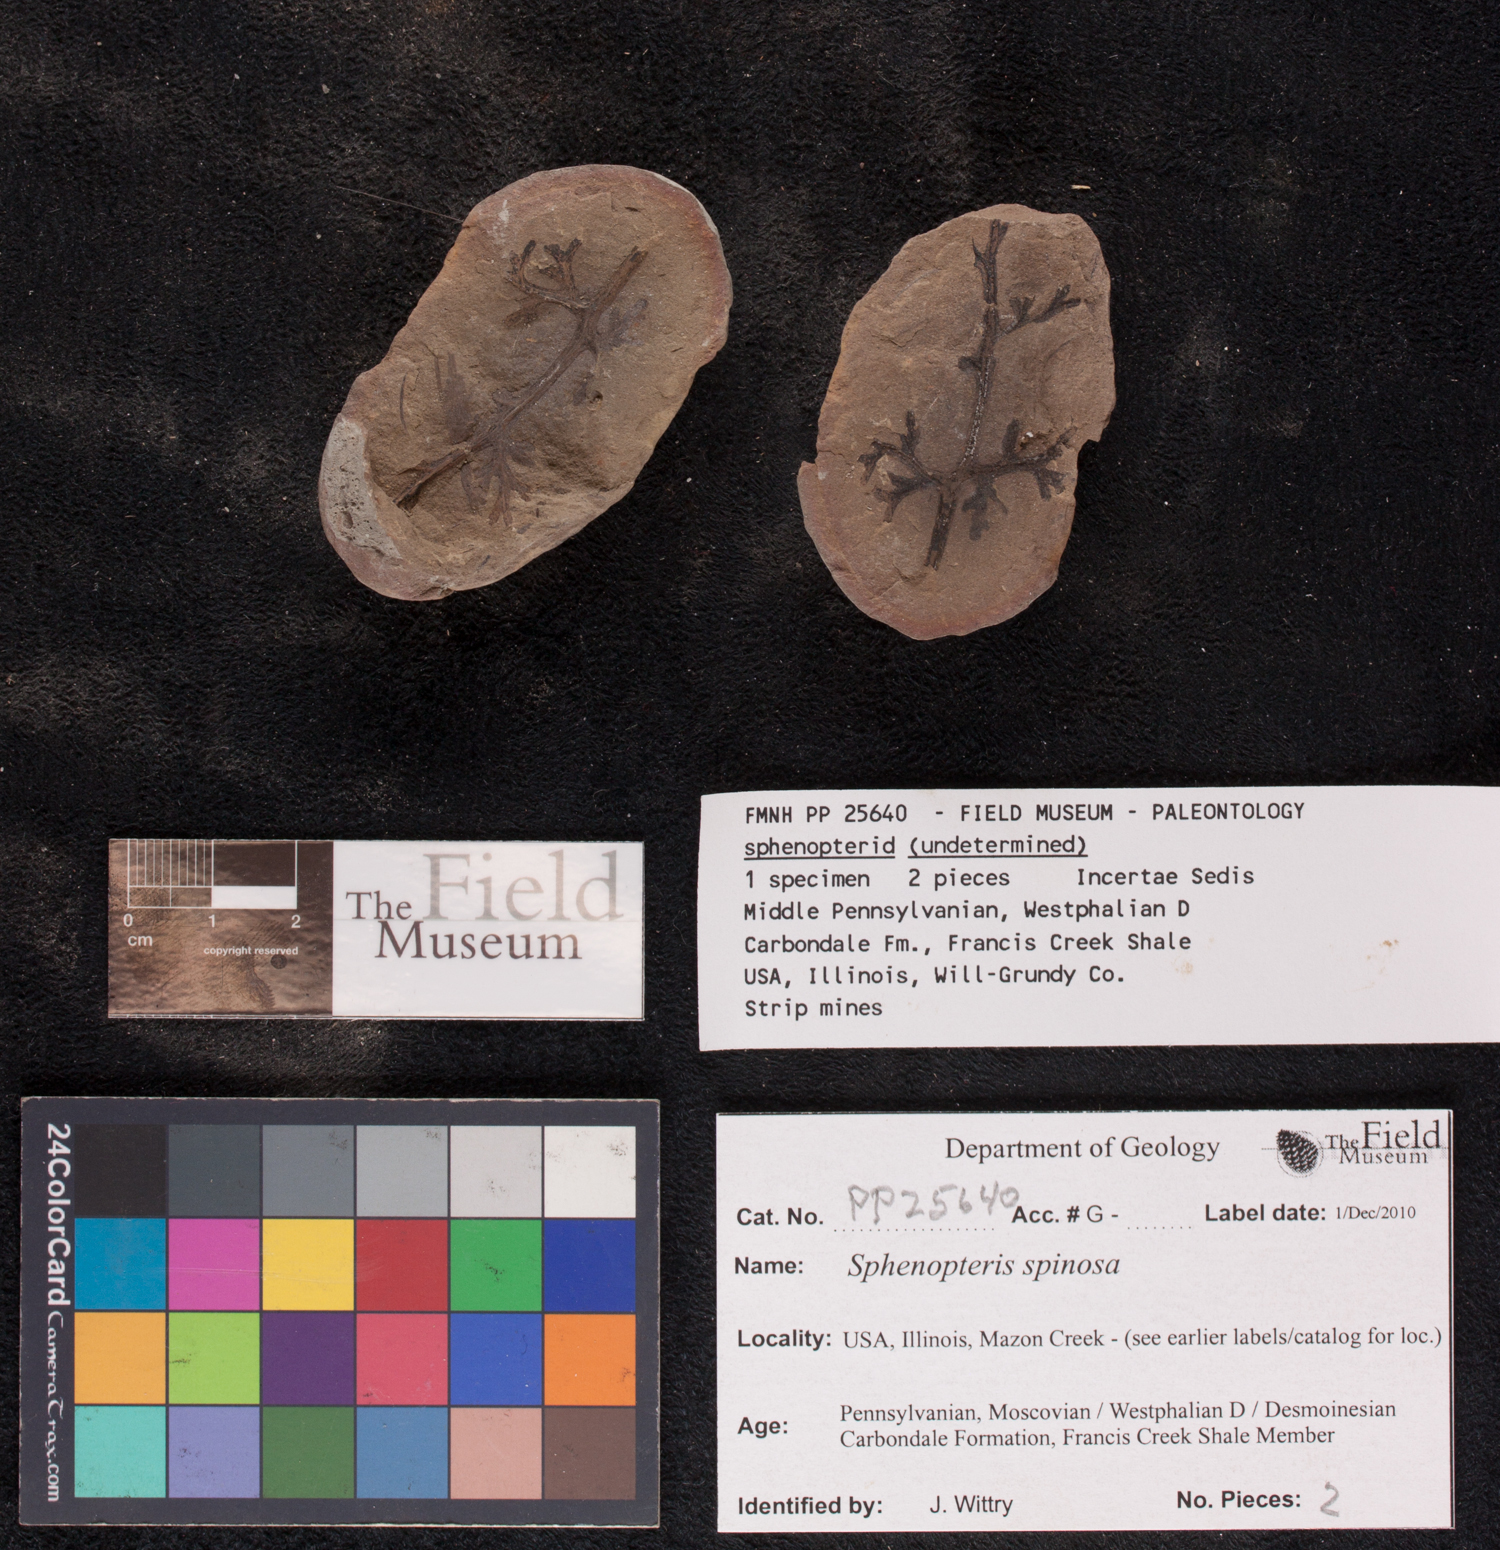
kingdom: Plantae
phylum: Tracheophyta
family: Lyginopteridaceae
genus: Sphenopteris
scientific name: Sphenopteris
